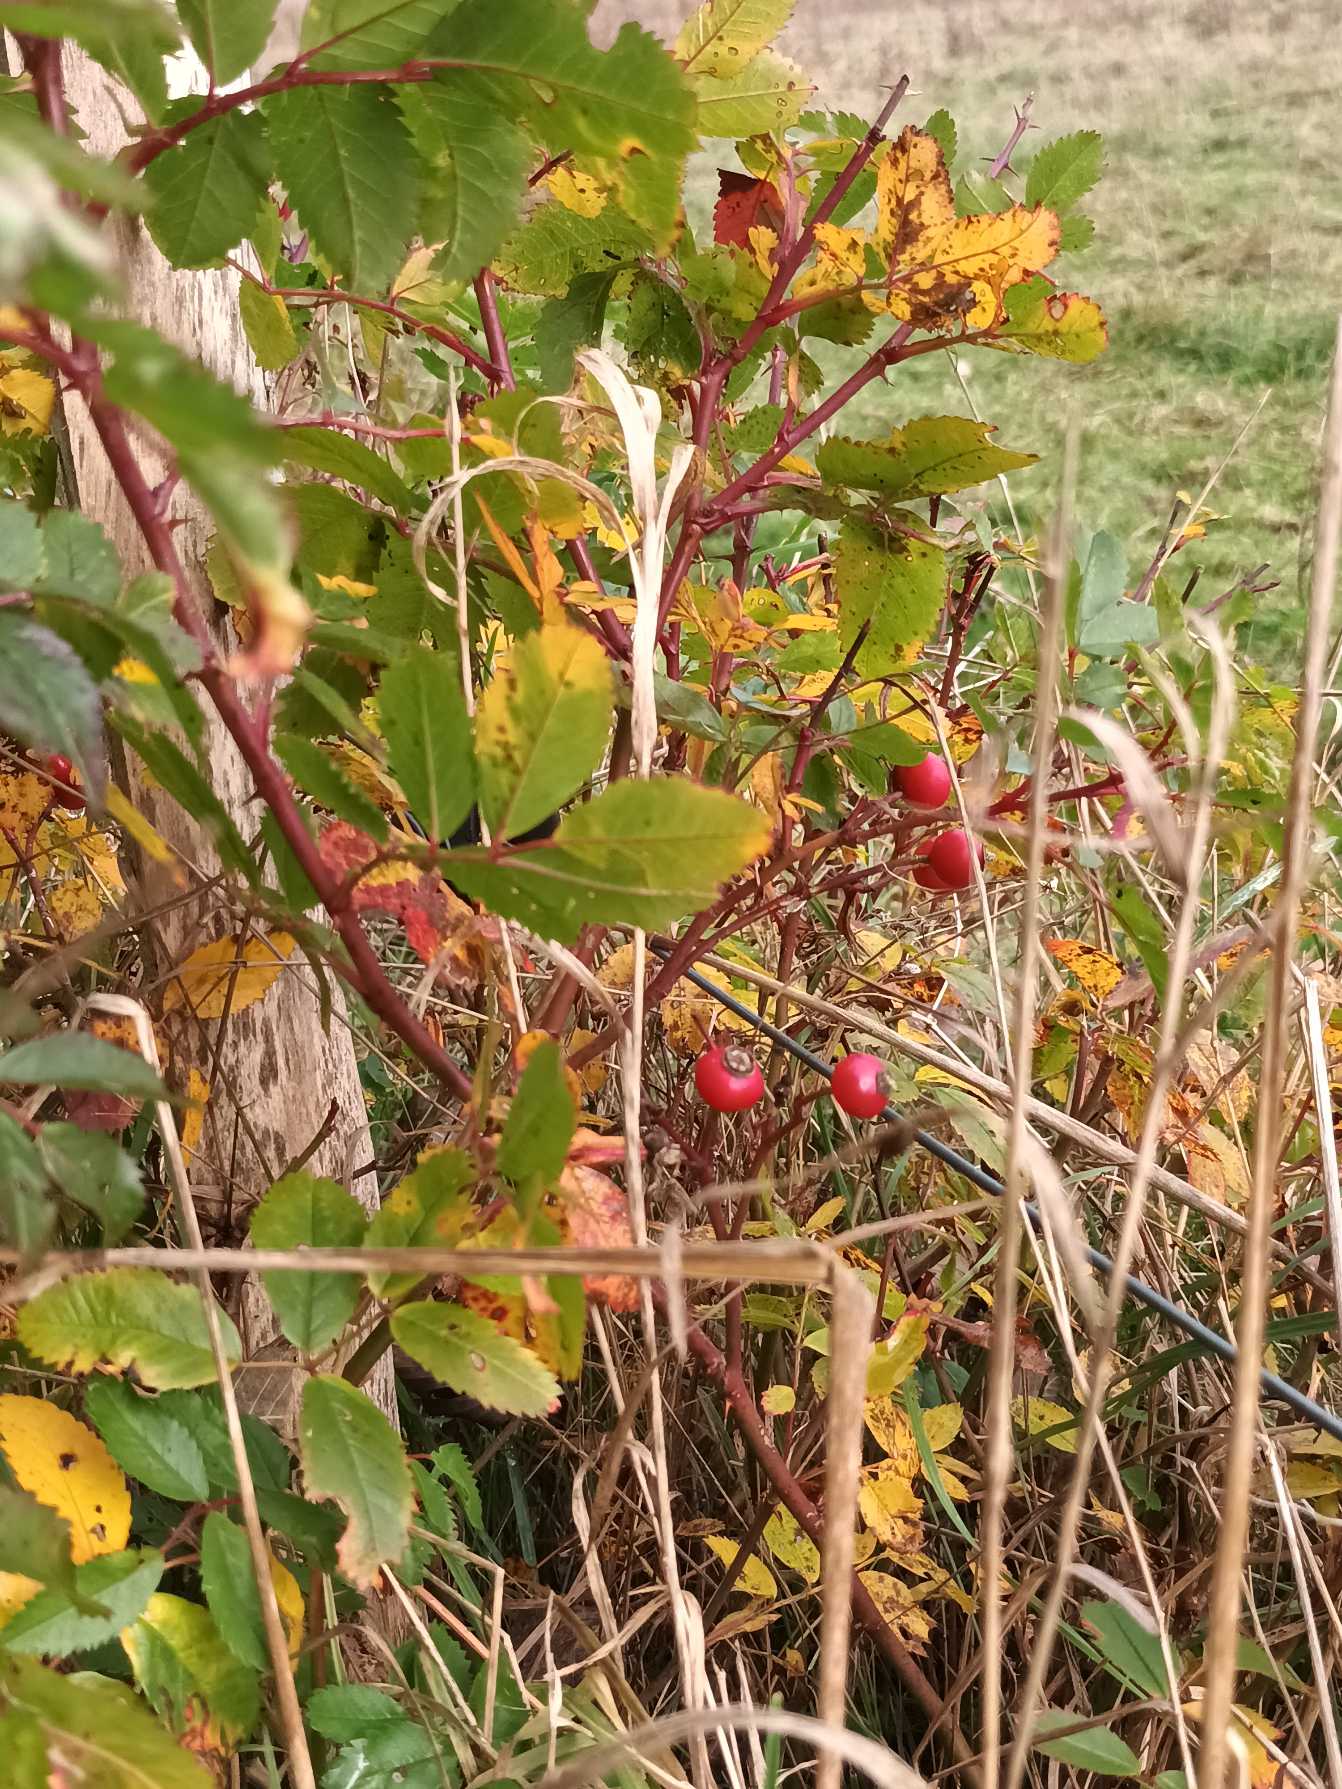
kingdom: Plantae
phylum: Tracheophyta
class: Magnoliopsida
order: Rosales
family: Rosaceae
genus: Rosa
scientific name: Rosa carolina
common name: Glansbladet rose
